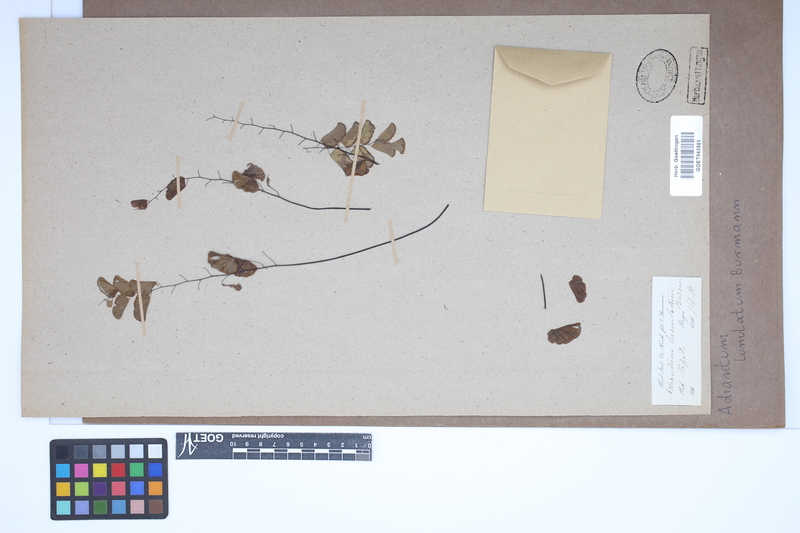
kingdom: Plantae
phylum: Tracheophyta
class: Polypodiopsida
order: Polypodiales
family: Pteridaceae
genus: Adiantum
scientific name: Adiantum philippense
